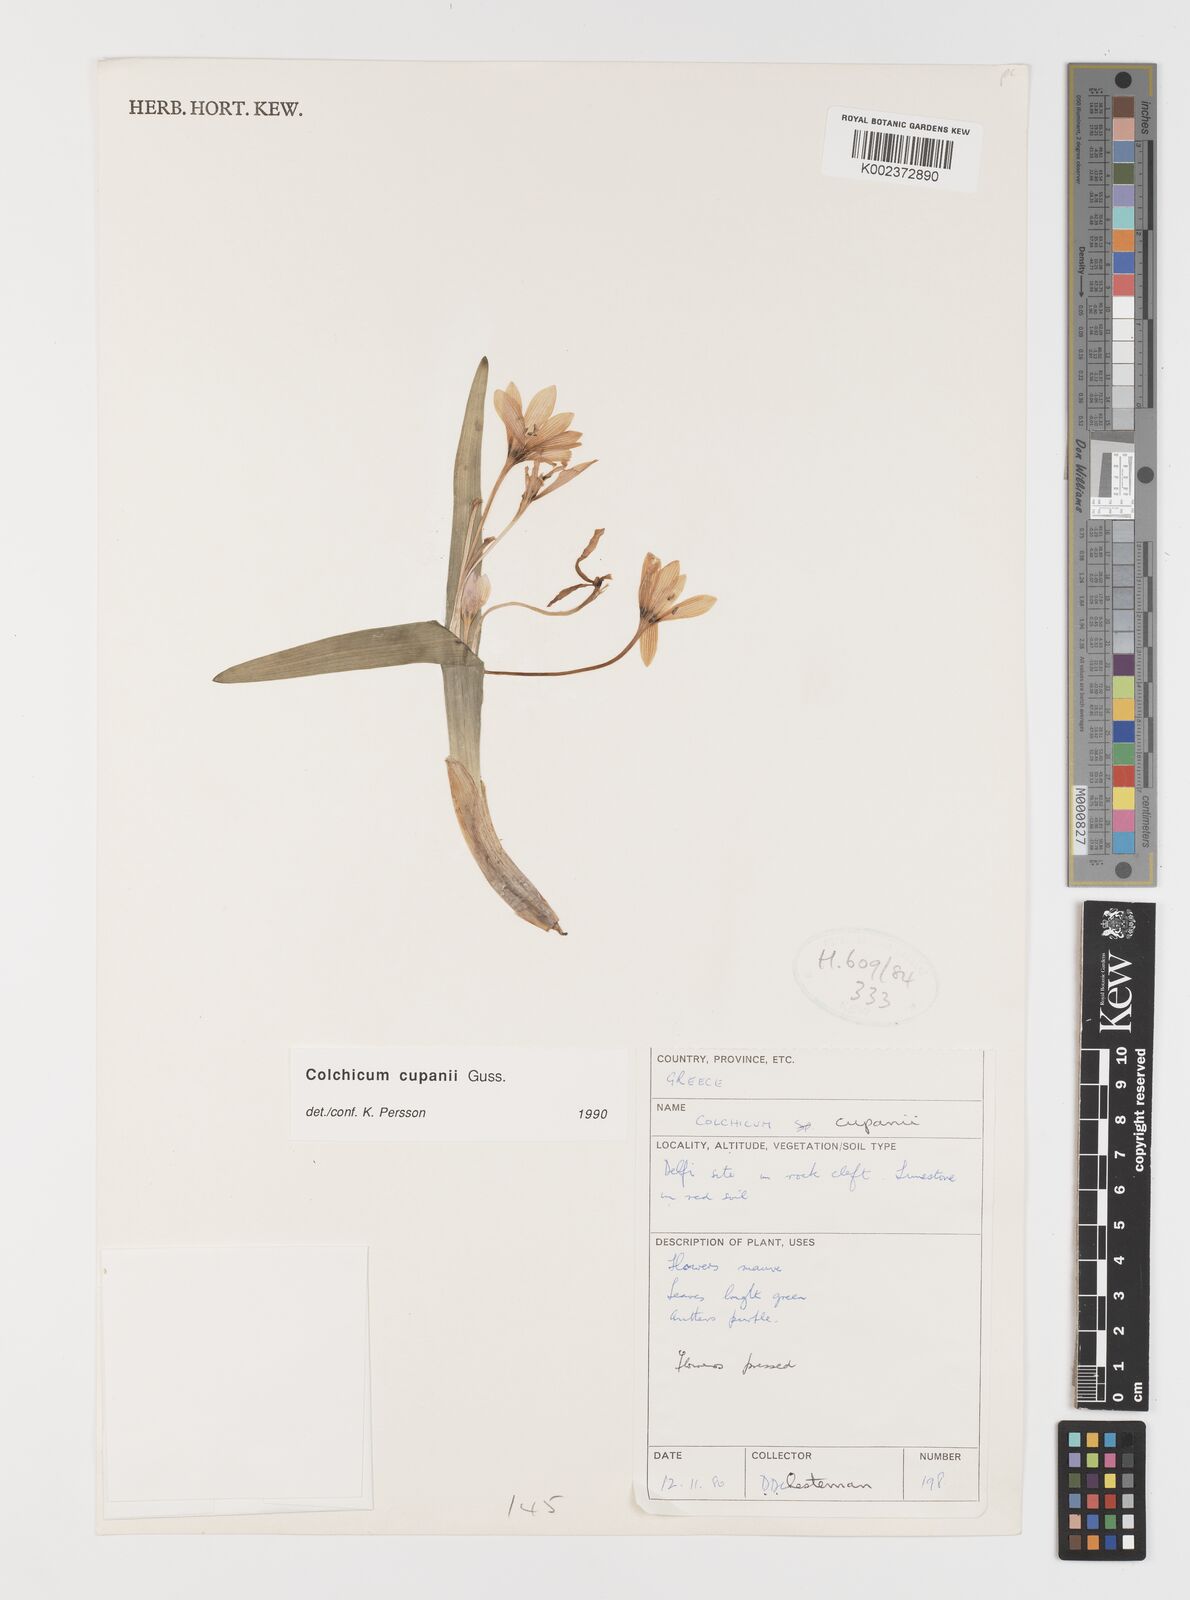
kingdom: Plantae
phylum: Tracheophyta
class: Liliopsida
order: Liliales
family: Colchicaceae
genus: Colchicum
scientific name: Colchicum cupanii
